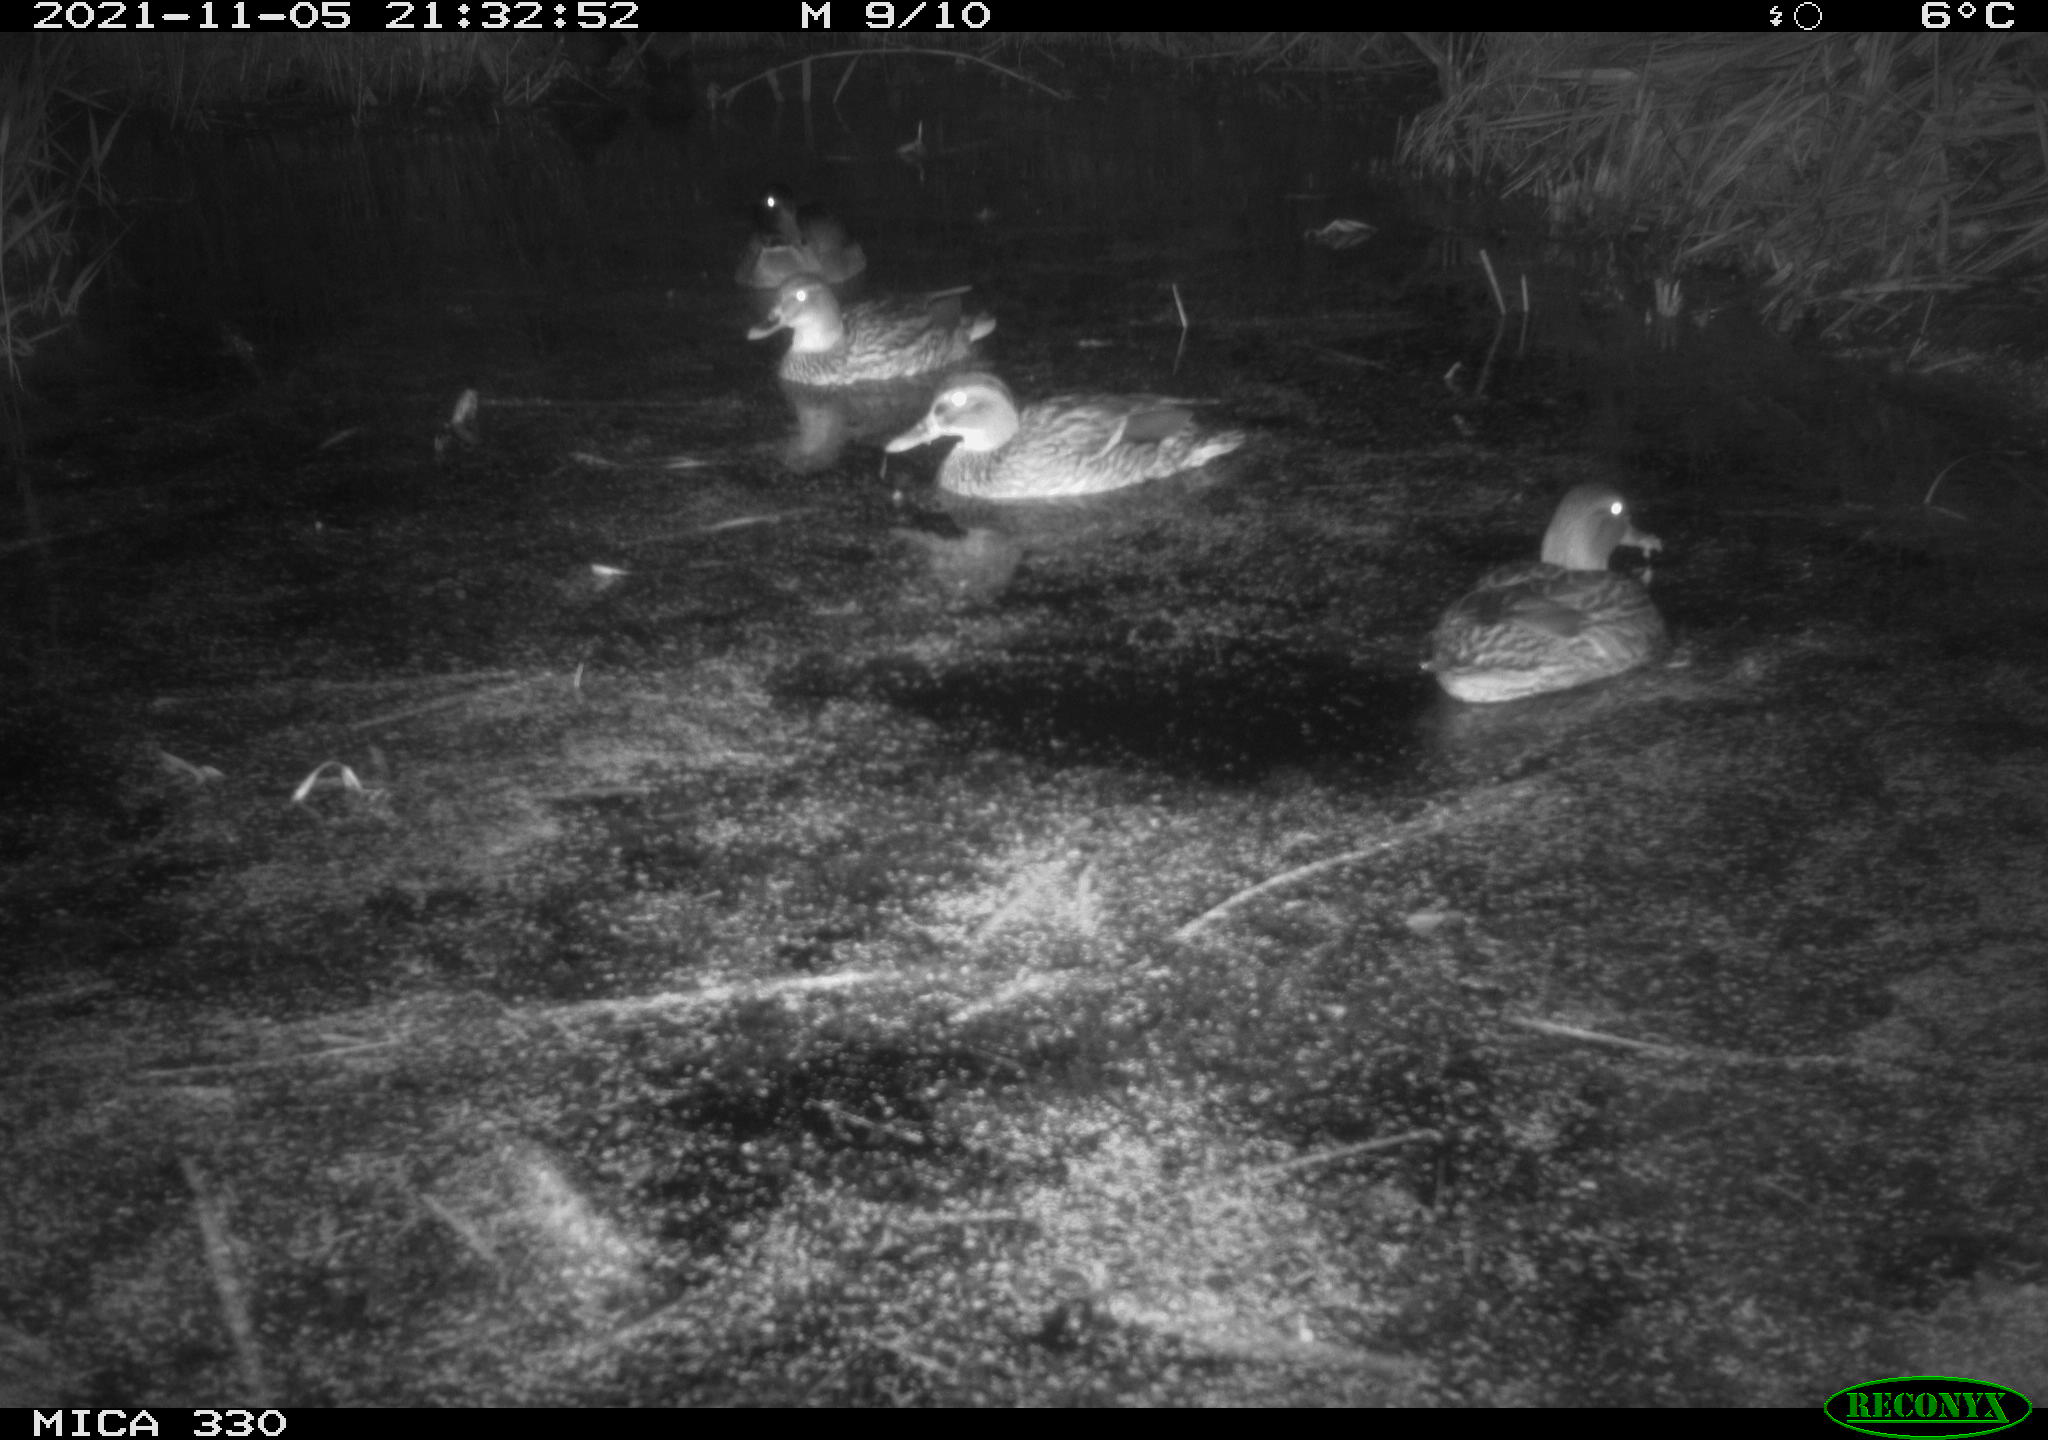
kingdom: Animalia
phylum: Chordata
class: Aves
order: Anseriformes
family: Anatidae
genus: Anas
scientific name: Anas platyrhynchos
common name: Mallard
